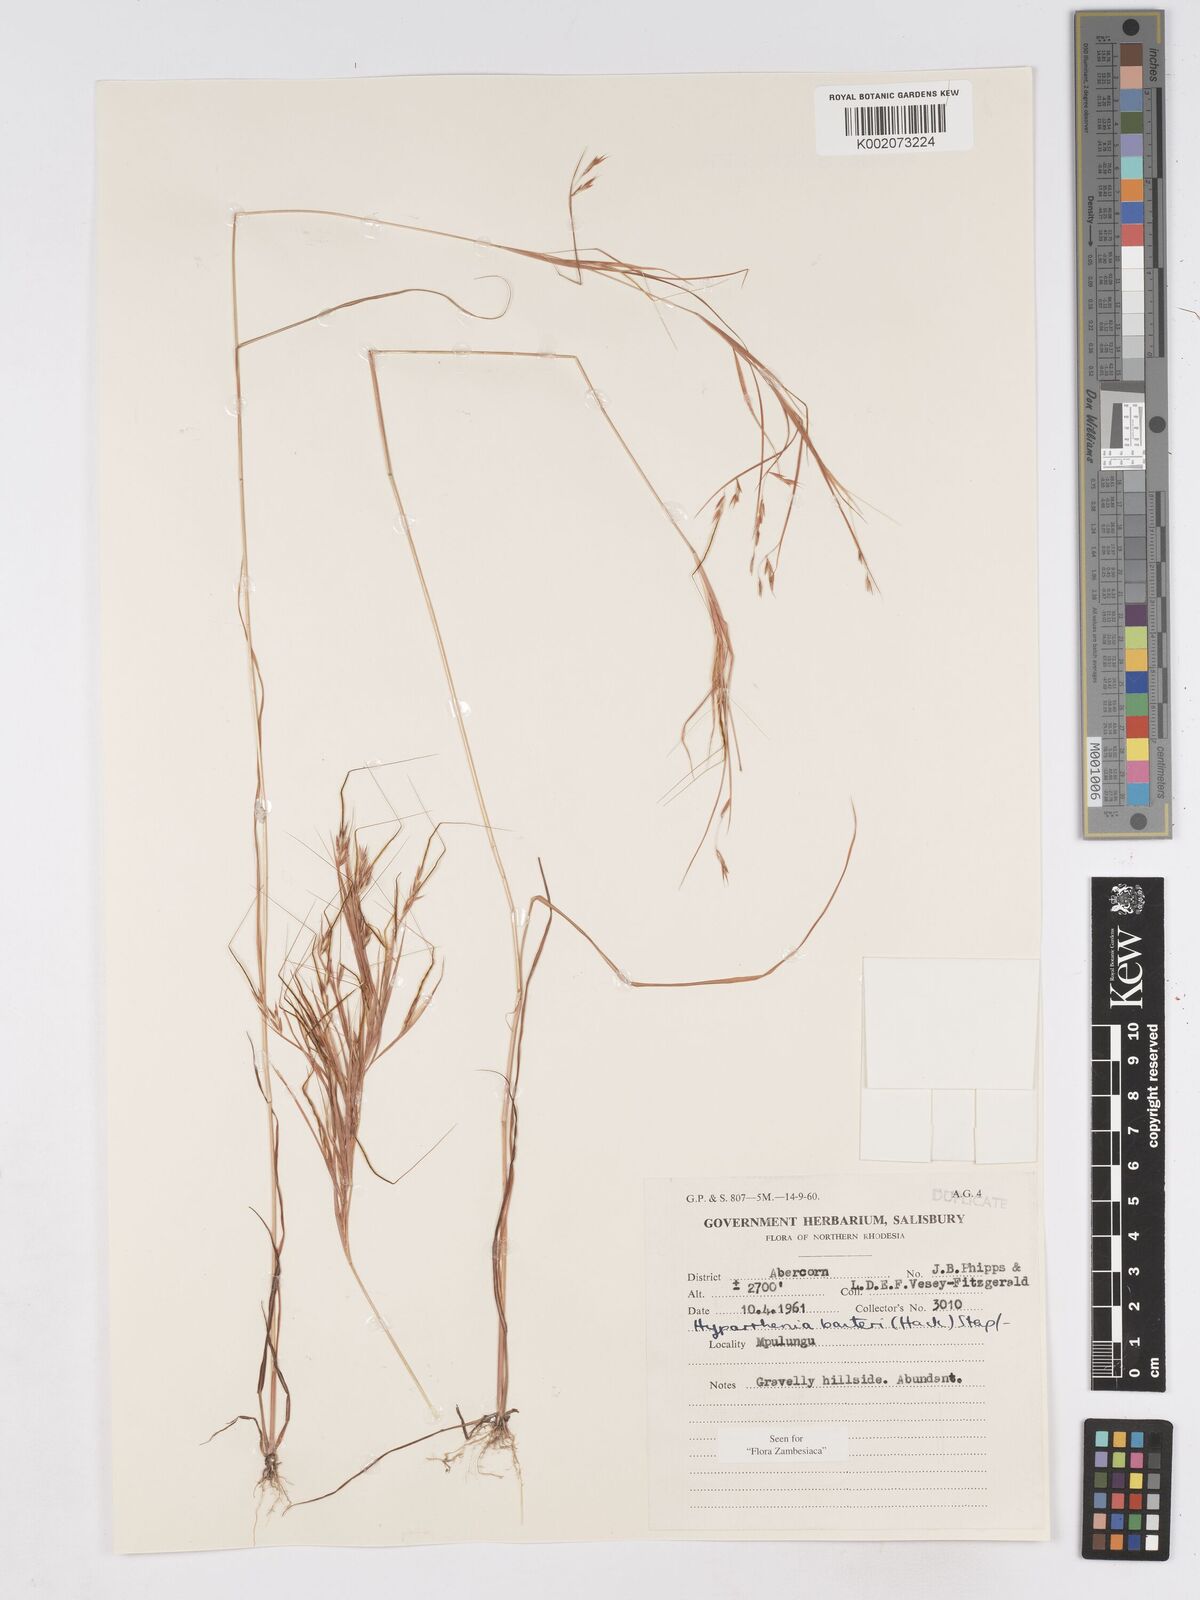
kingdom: Plantae
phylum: Tracheophyta
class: Liliopsida
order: Poales
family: Poaceae
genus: Hyparrhenia
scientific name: Hyparrhenia barteri
